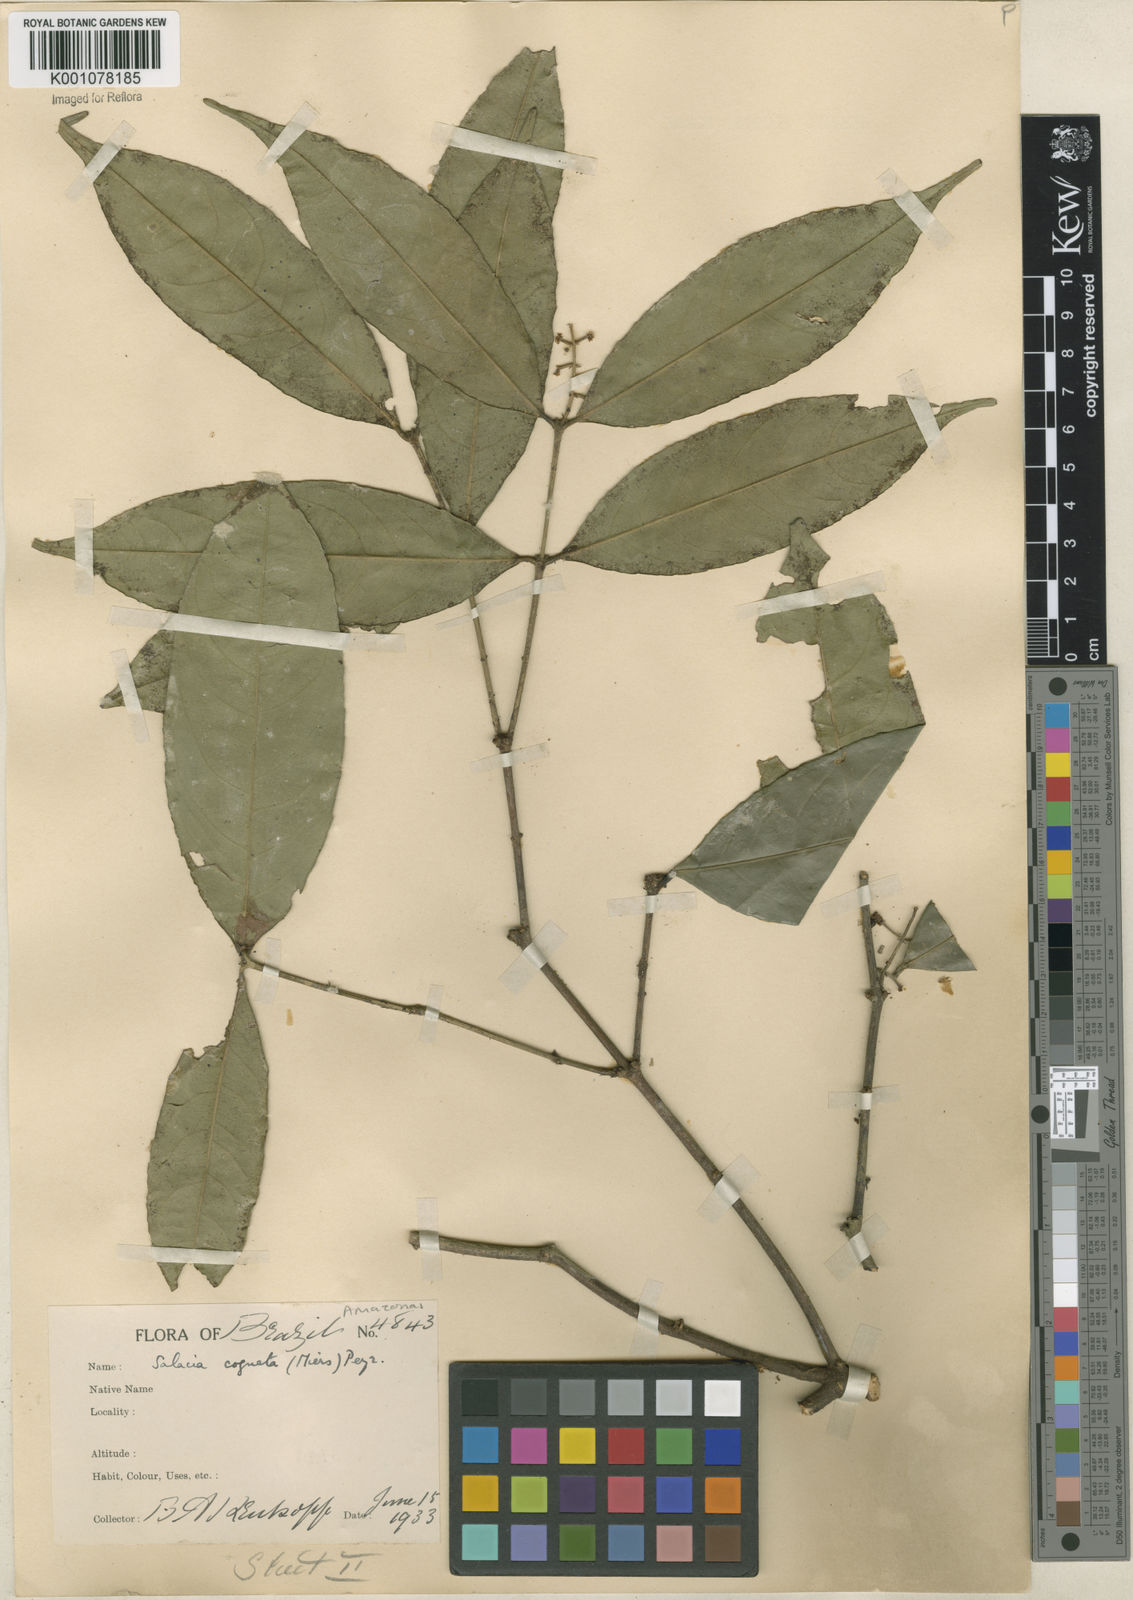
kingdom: Plantae
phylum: Tracheophyta
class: Magnoliopsida
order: Celastrales
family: Celastraceae
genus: Cheiloclinium
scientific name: Cheiloclinium cognatum
